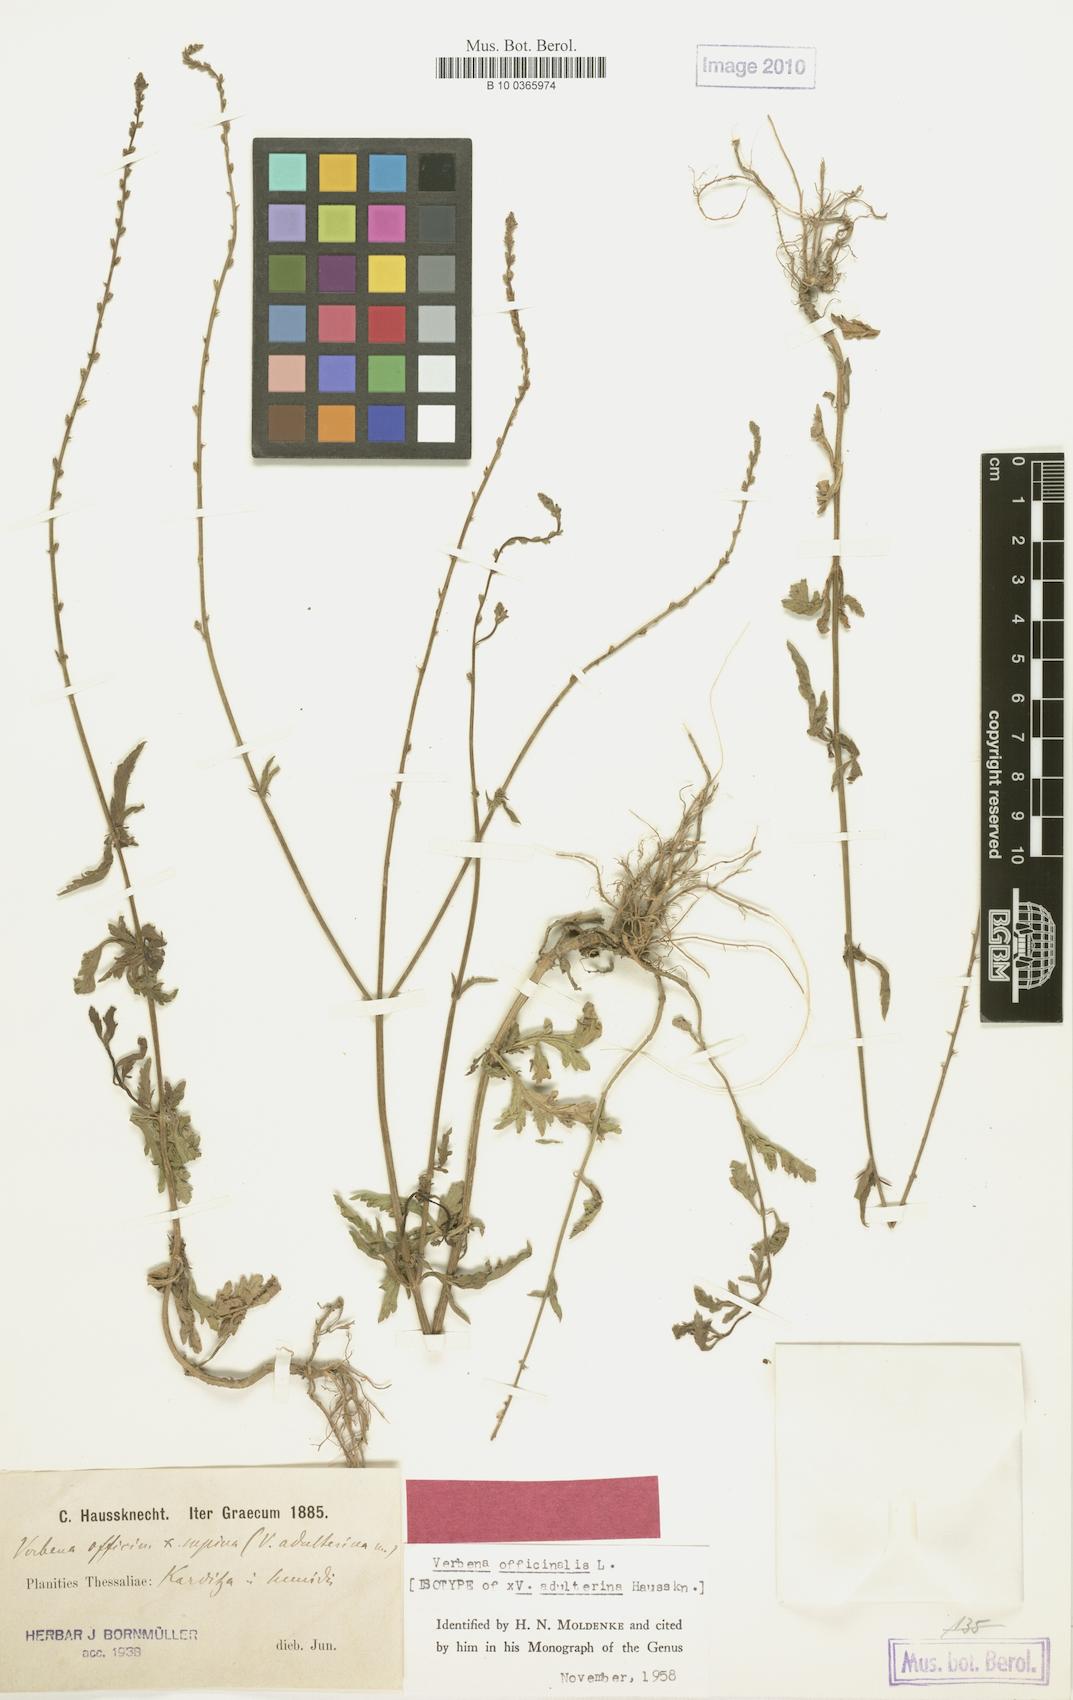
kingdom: Plantae
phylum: Tracheophyta
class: Magnoliopsida
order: Lamiales
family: Verbenaceae
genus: Verbena
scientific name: Verbena officinalis
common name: Vervain
